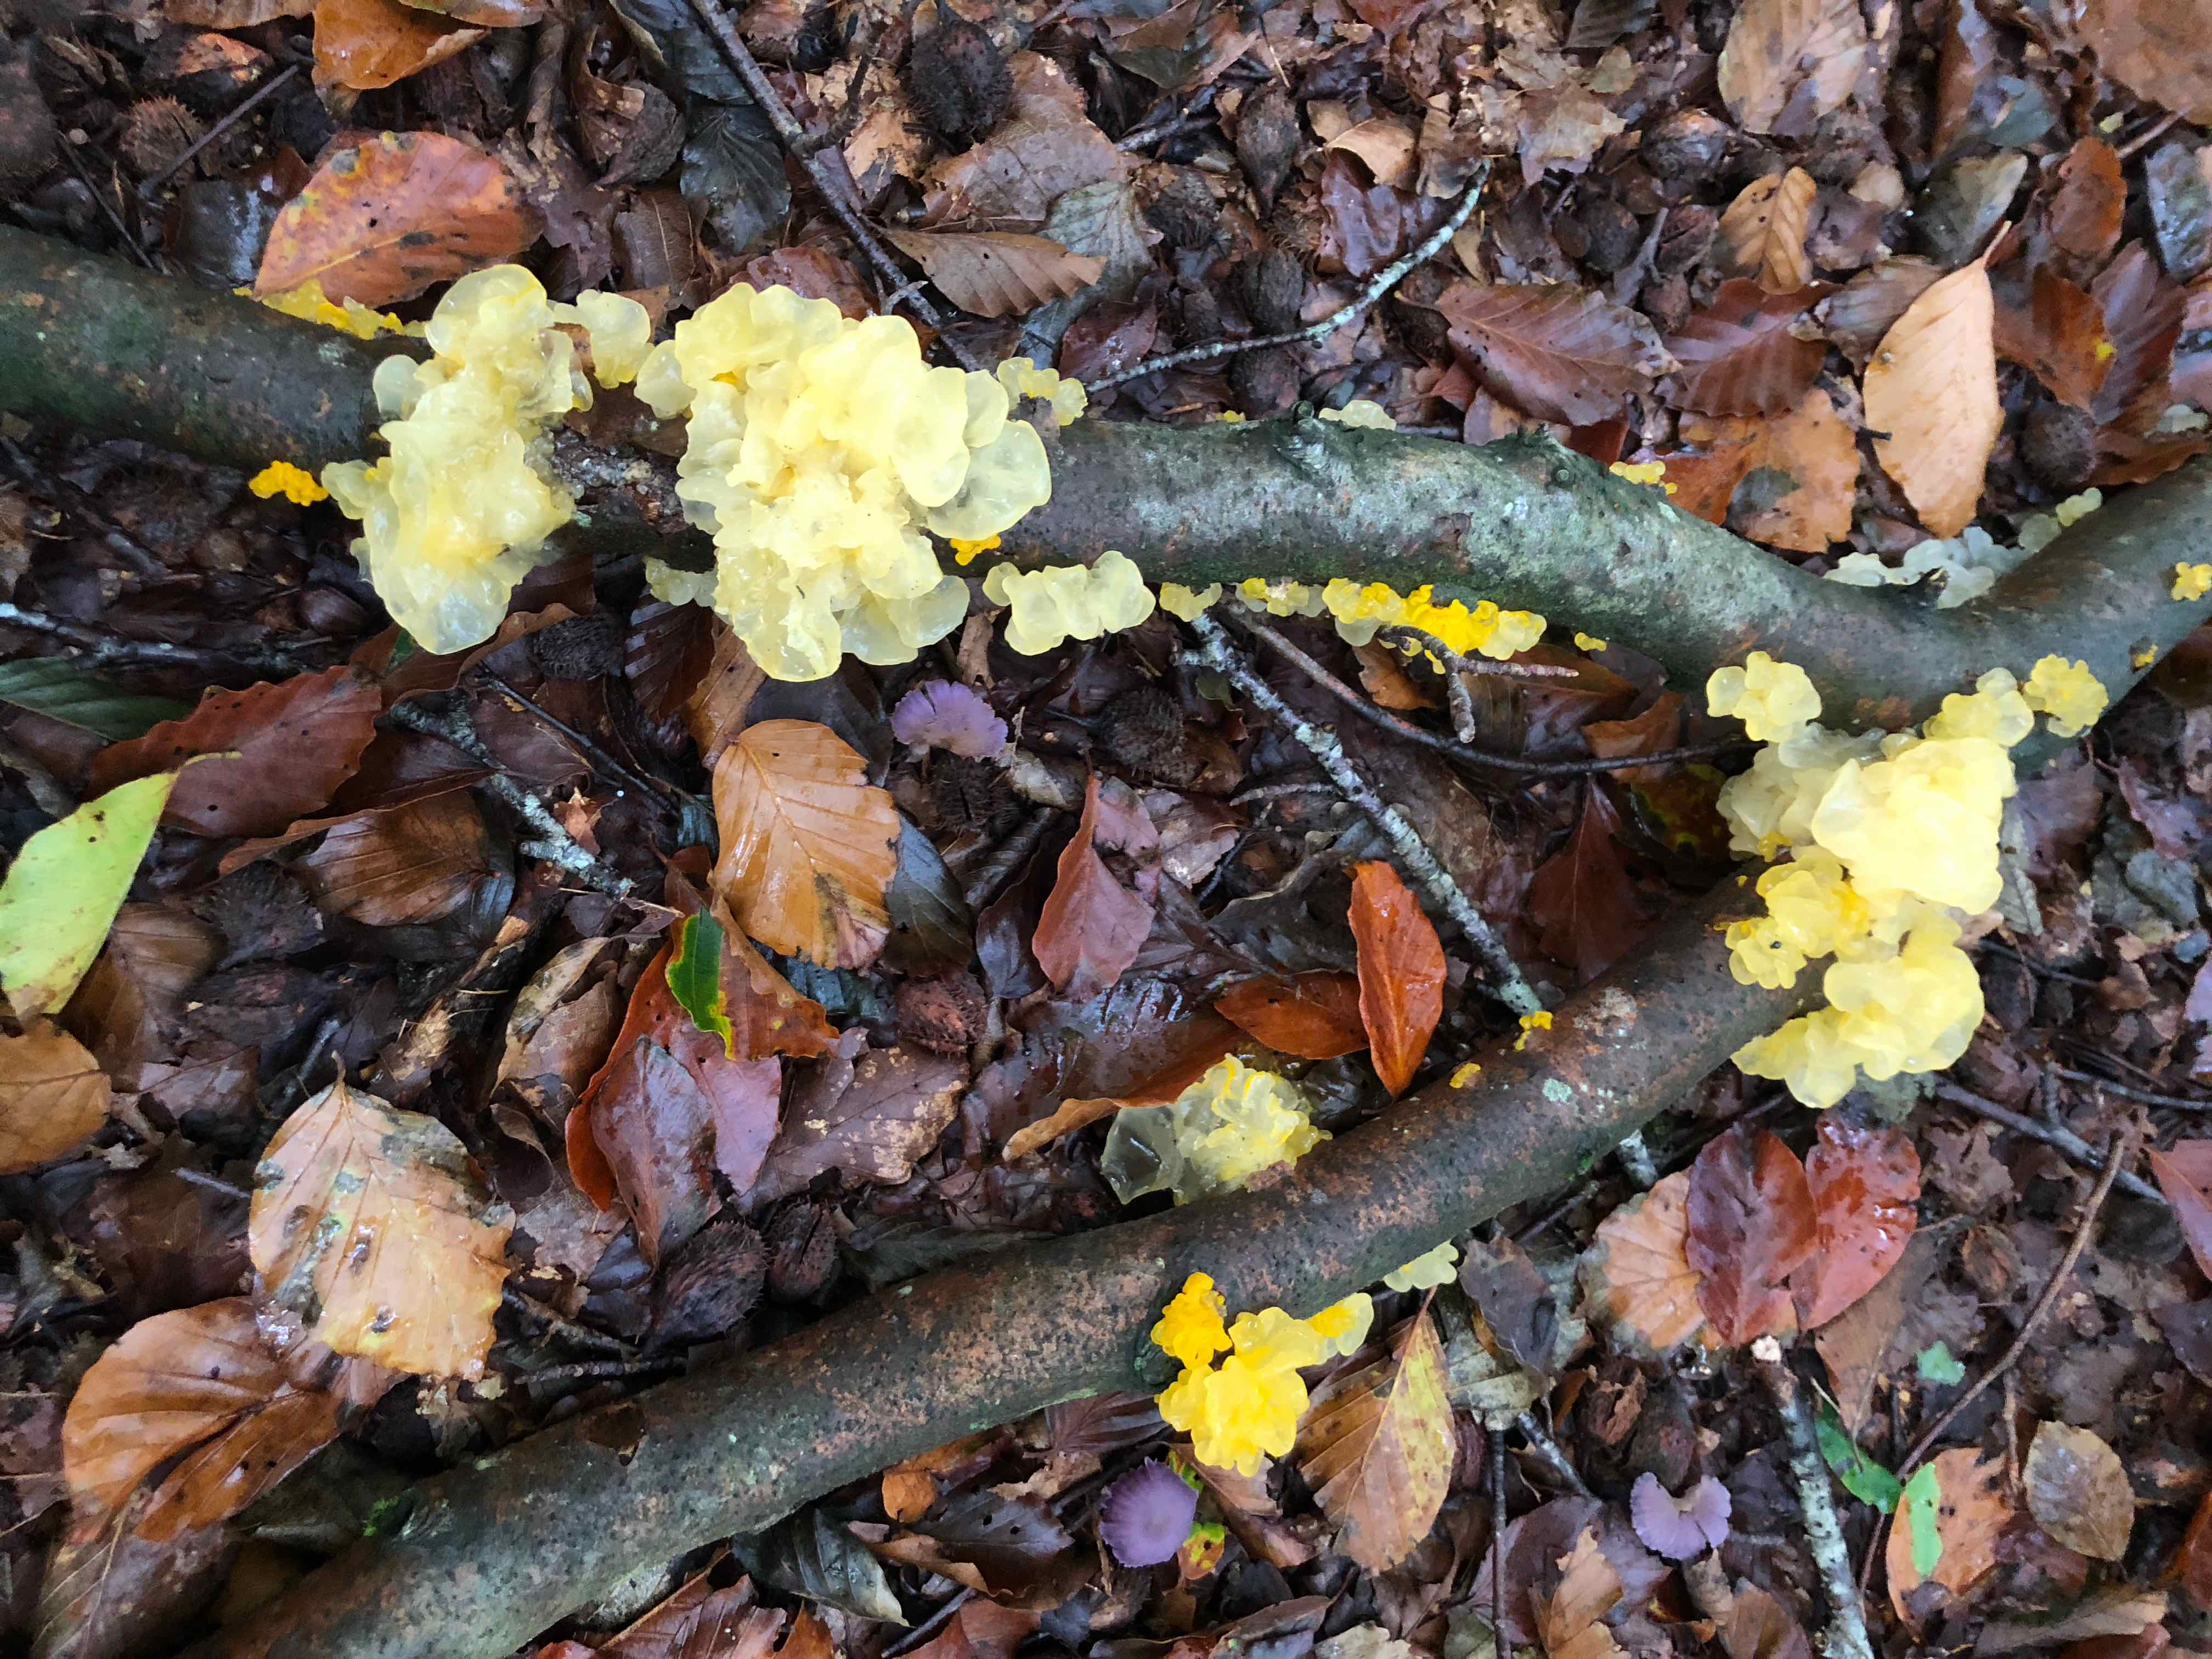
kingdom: Fungi
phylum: Basidiomycota
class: Tremellomycetes
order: Tremellales
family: Tremellaceae
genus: Tremella
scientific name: Tremella mesenterica
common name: gul bævresvamp
